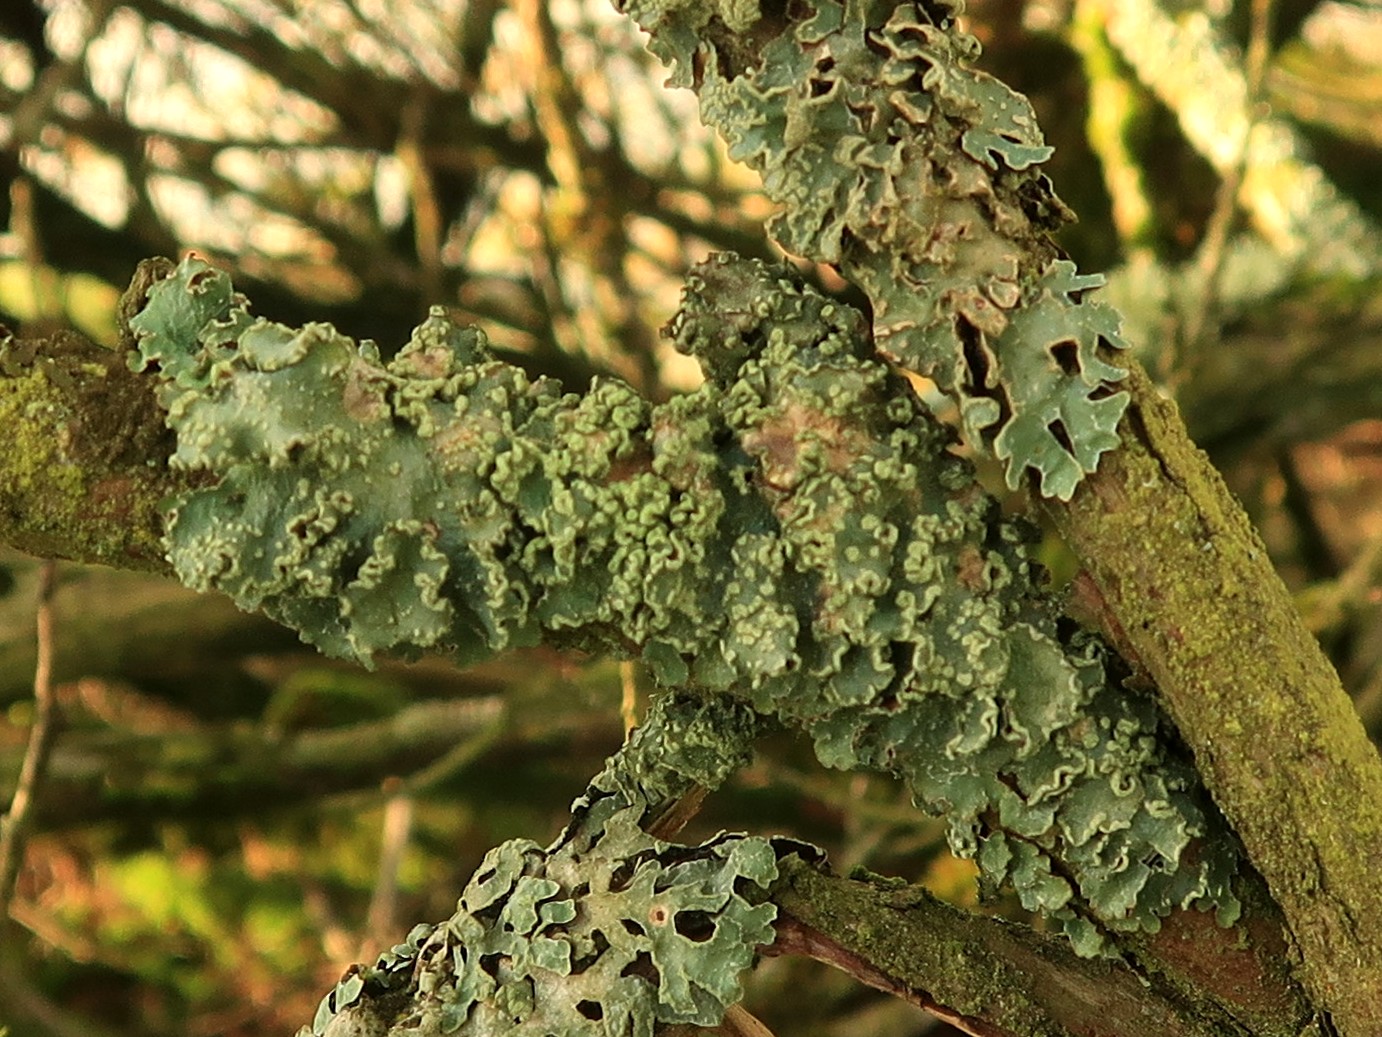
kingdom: Fungi
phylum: Ascomycota
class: Lecanoromycetes
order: Lecanorales
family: Parmeliaceae
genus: Punctelia
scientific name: Punctelia jeckeri
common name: randstøvet skållav
